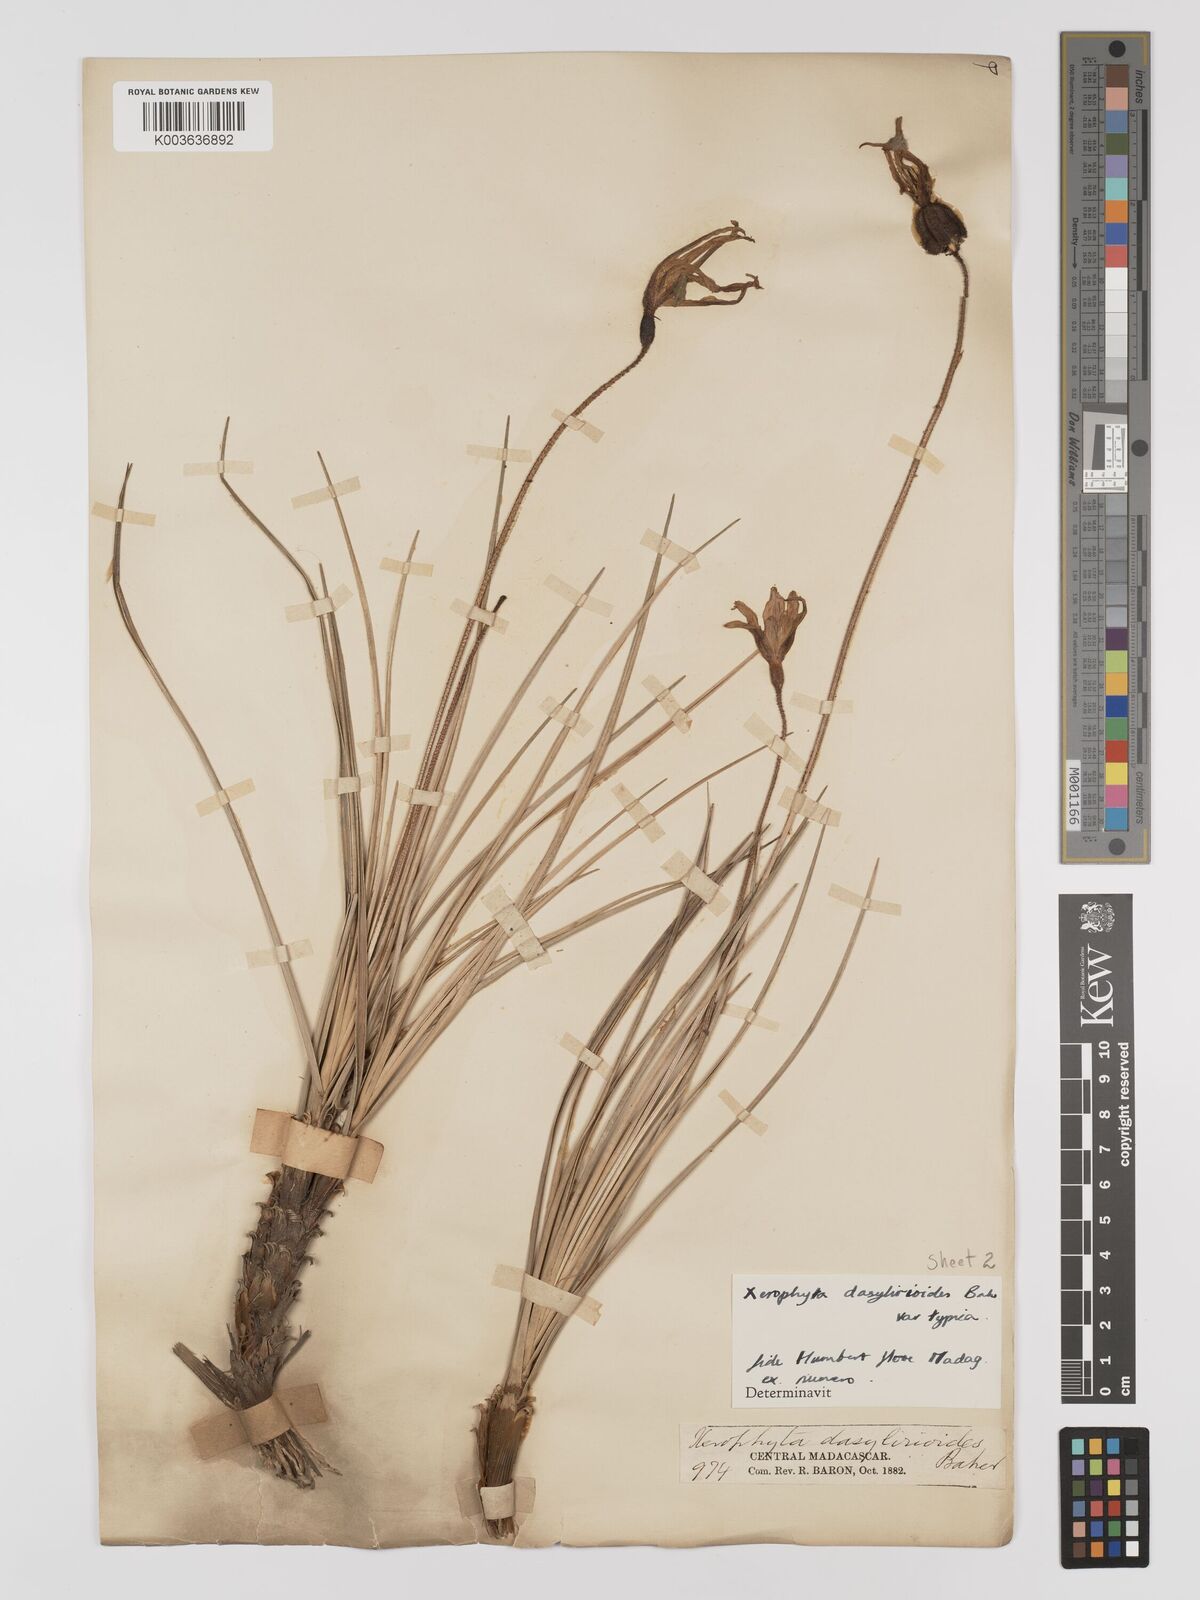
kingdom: Plantae
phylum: Tracheophyta
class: Liliopsida
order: Pandanales
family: Velloziaceae
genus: Xerophyta
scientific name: Xerophyta dasylirioides
